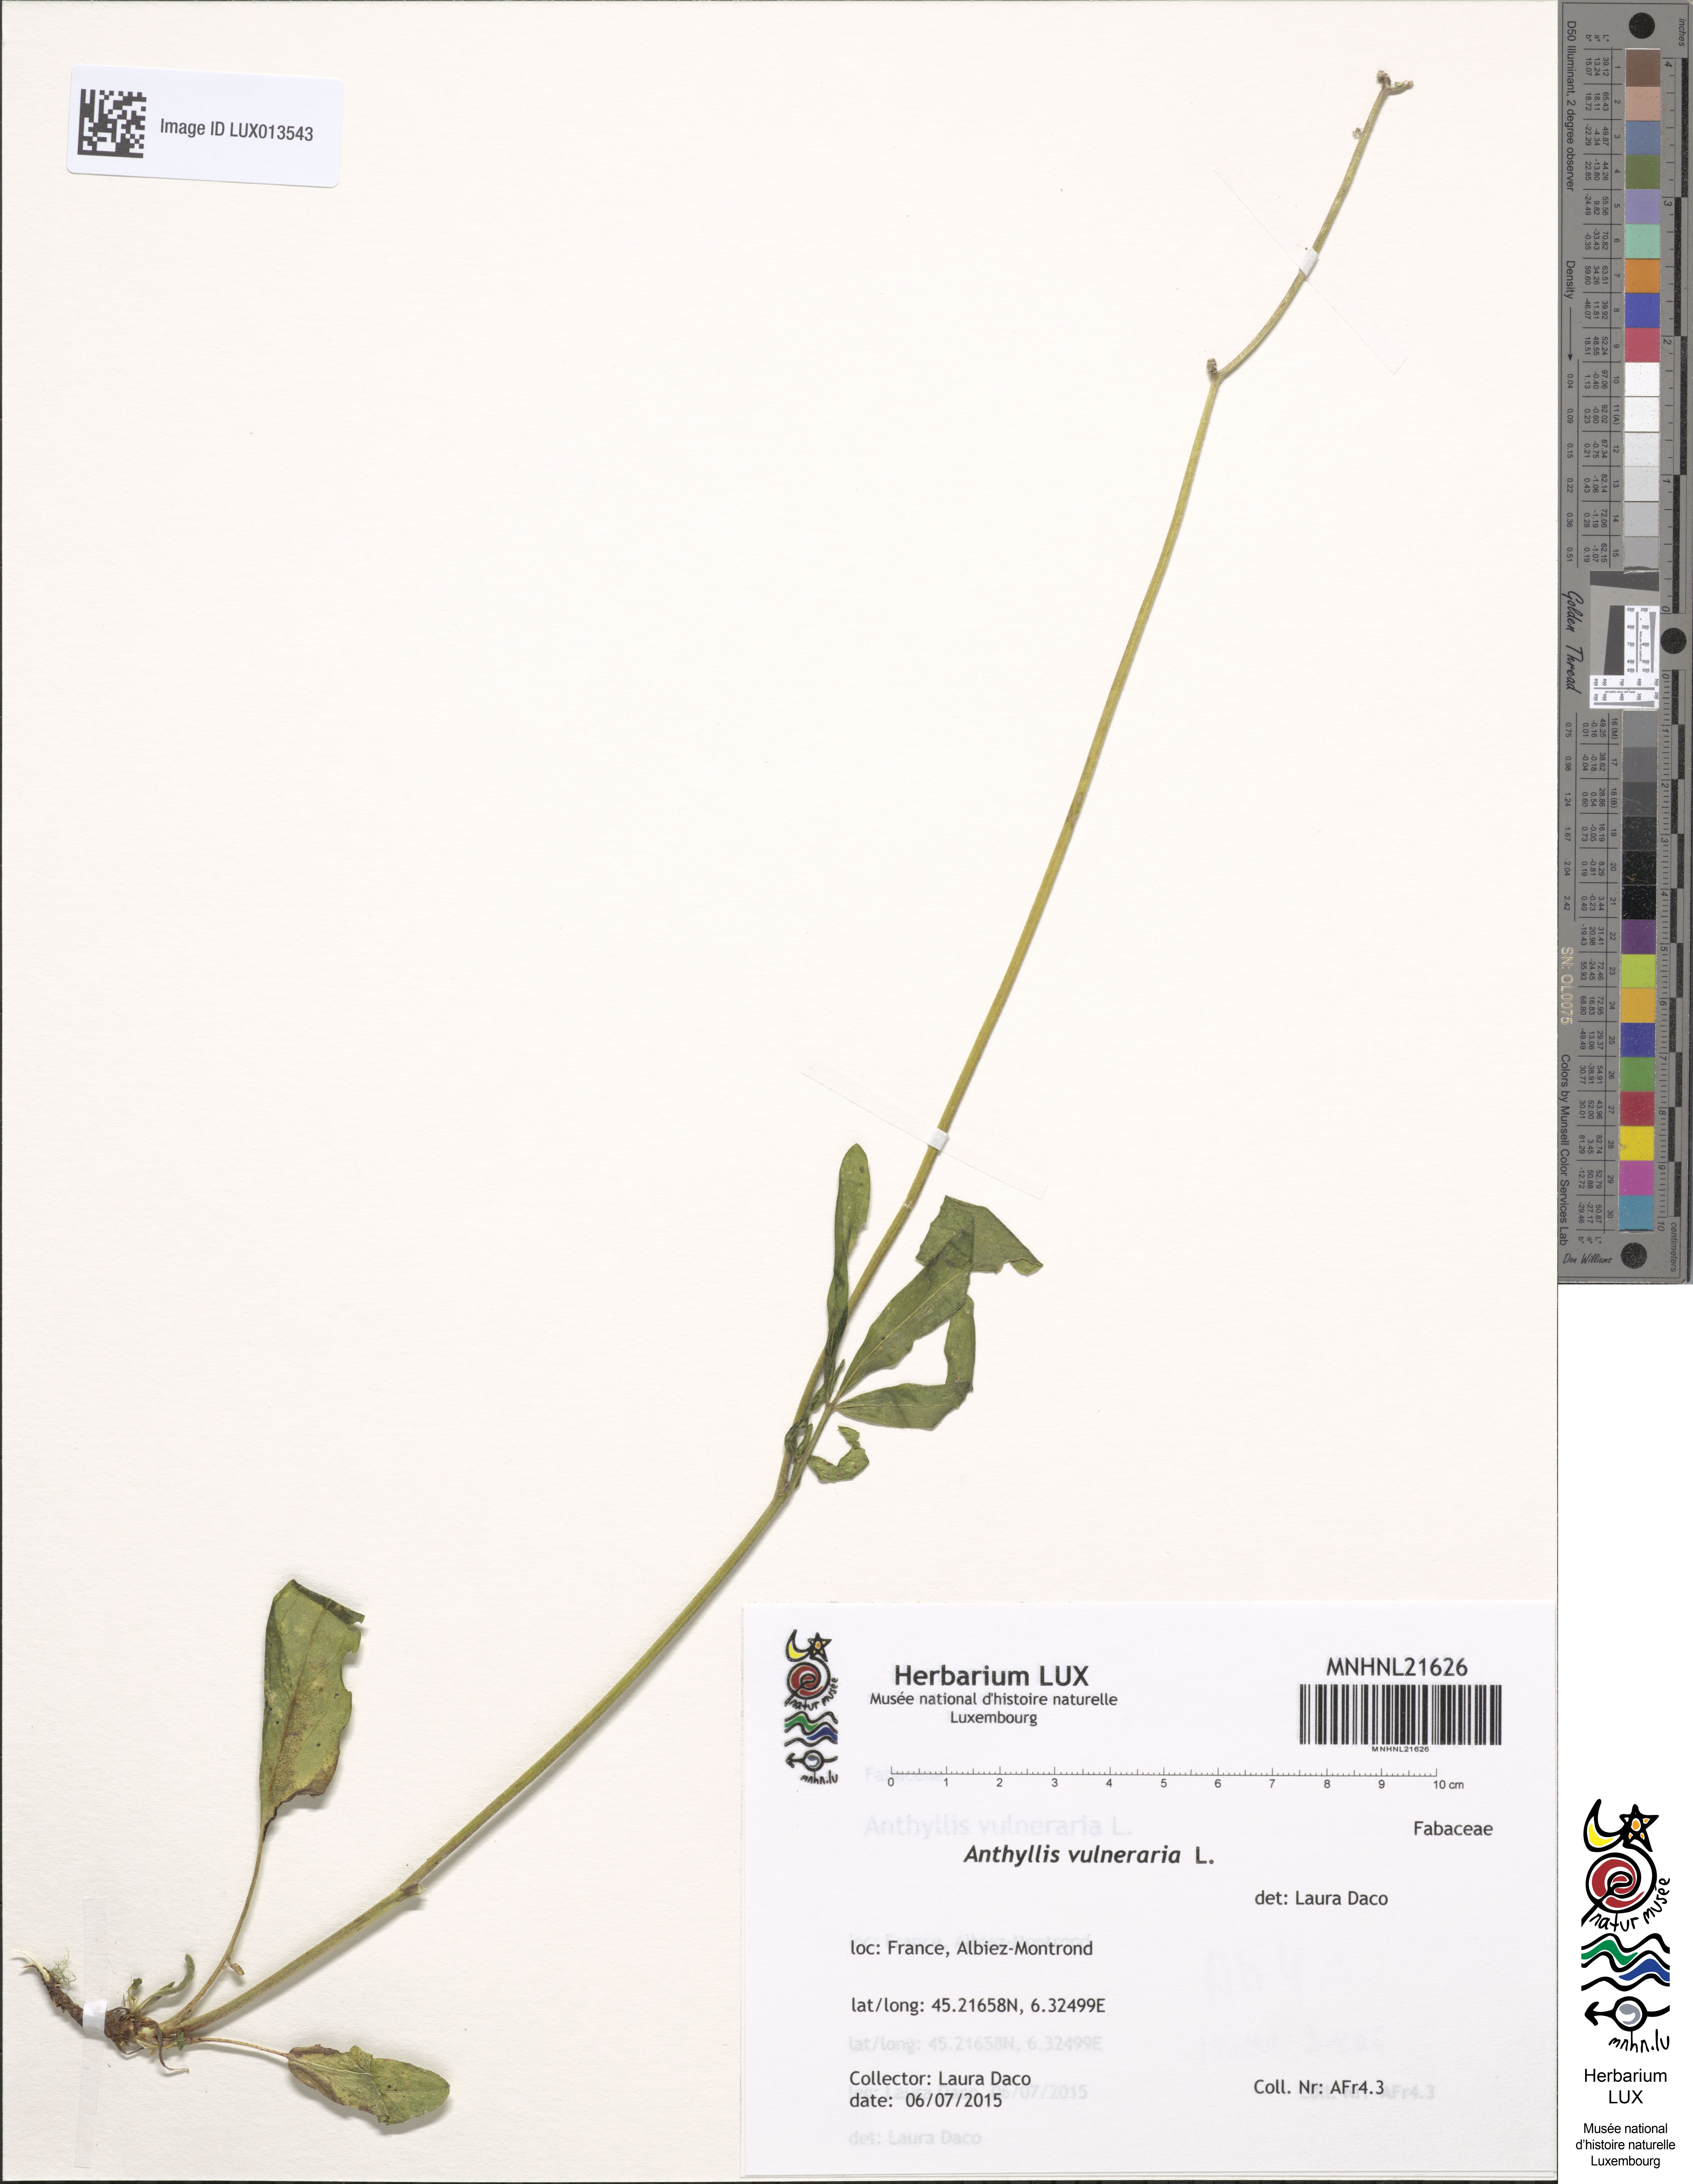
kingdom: Plantae
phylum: Tracheophyta
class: Magnoliopsida
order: Fabales
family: Fabaceae
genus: Anthyllis
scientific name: Anthyllis vulneraria
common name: Kidney vetch
